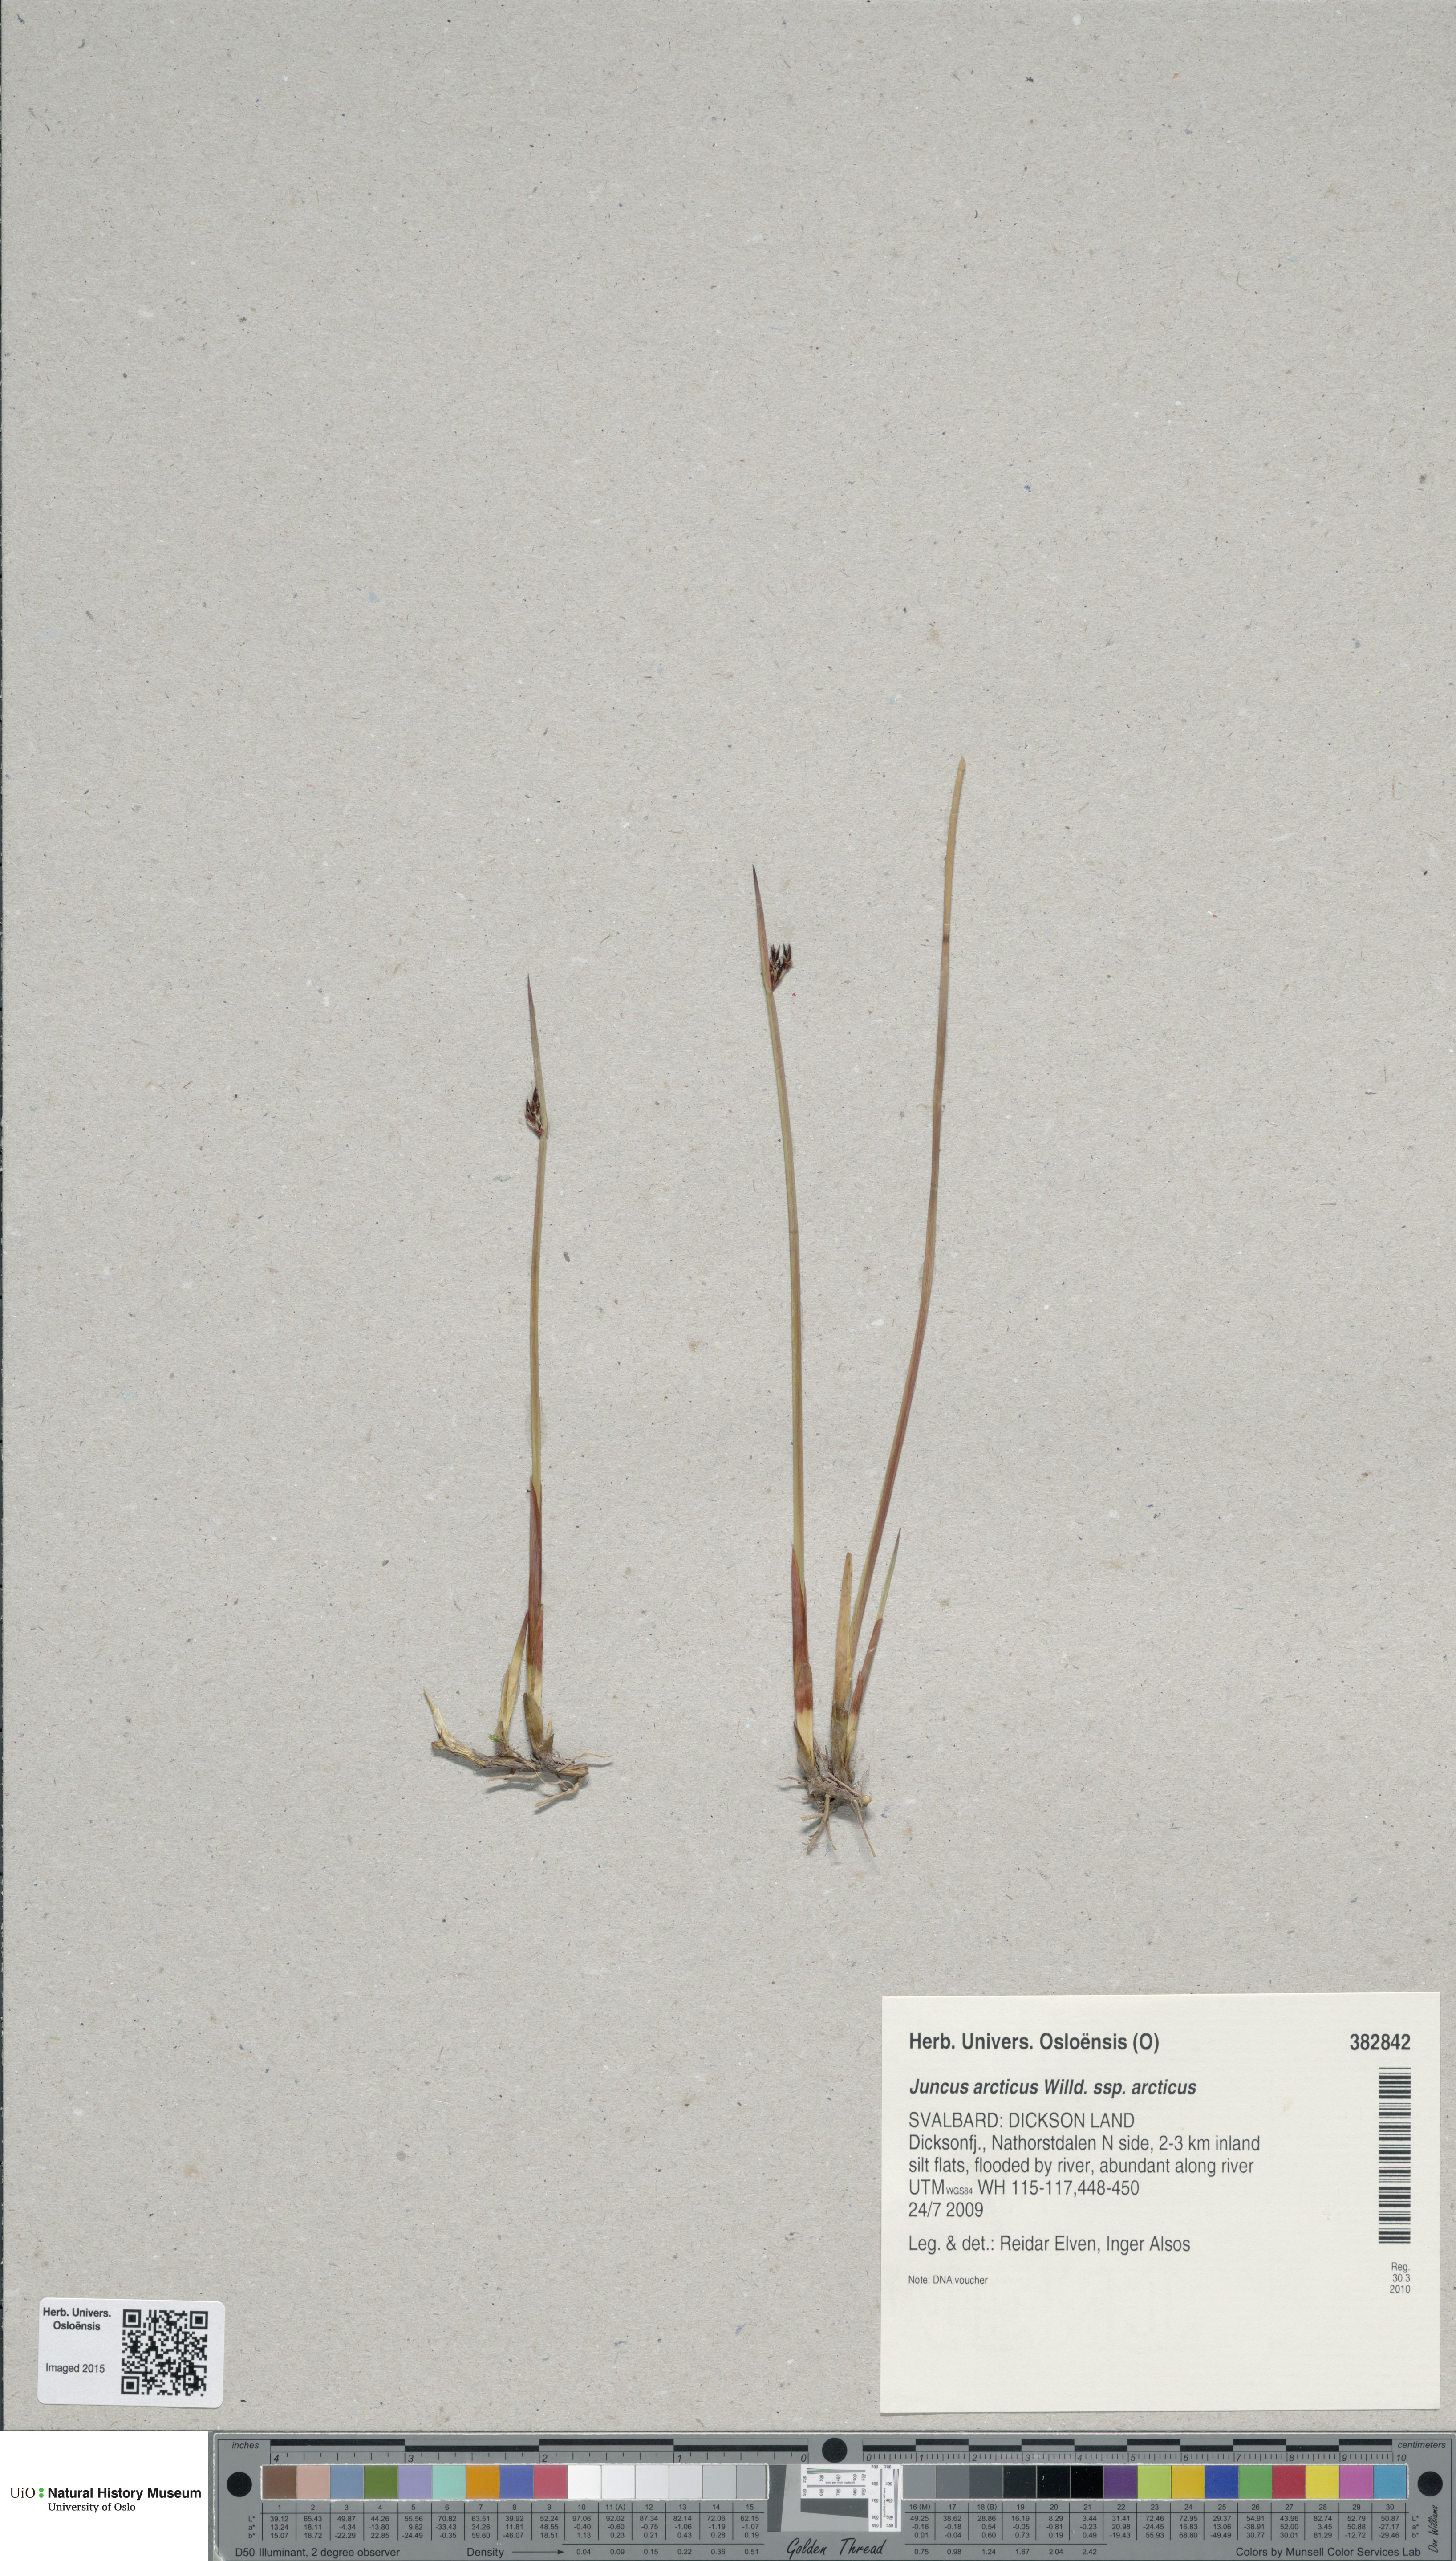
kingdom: Plantae
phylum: Tracheophyta
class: Liliopsida
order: Poales
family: Juncaceae
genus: Juncus
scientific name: Juncus arcticus
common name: Arctic rush
